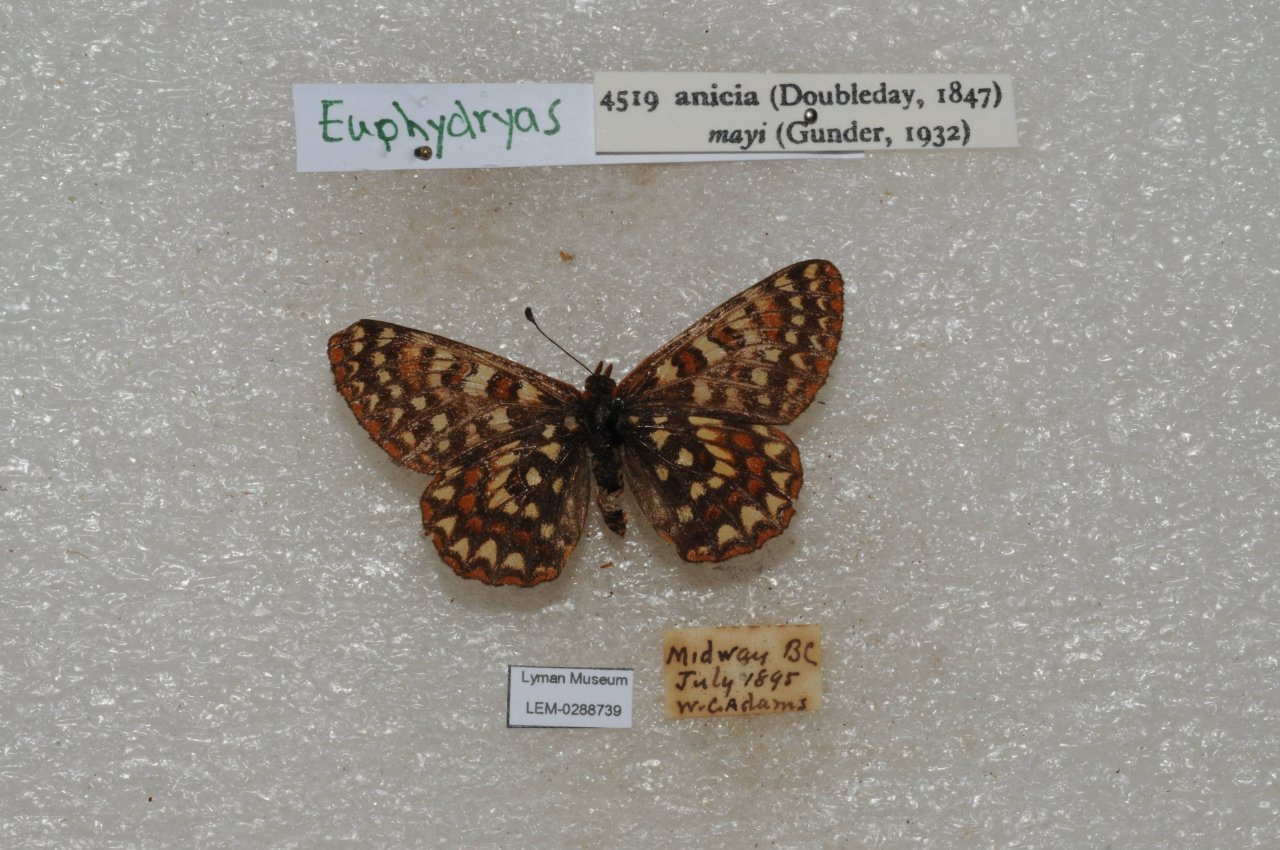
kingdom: Animalia
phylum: Arthropoda
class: Insecta
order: Lepidoptera
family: Nymphalidae
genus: Occidryas
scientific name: Occidryas anicia
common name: Anicia Checkerspot
